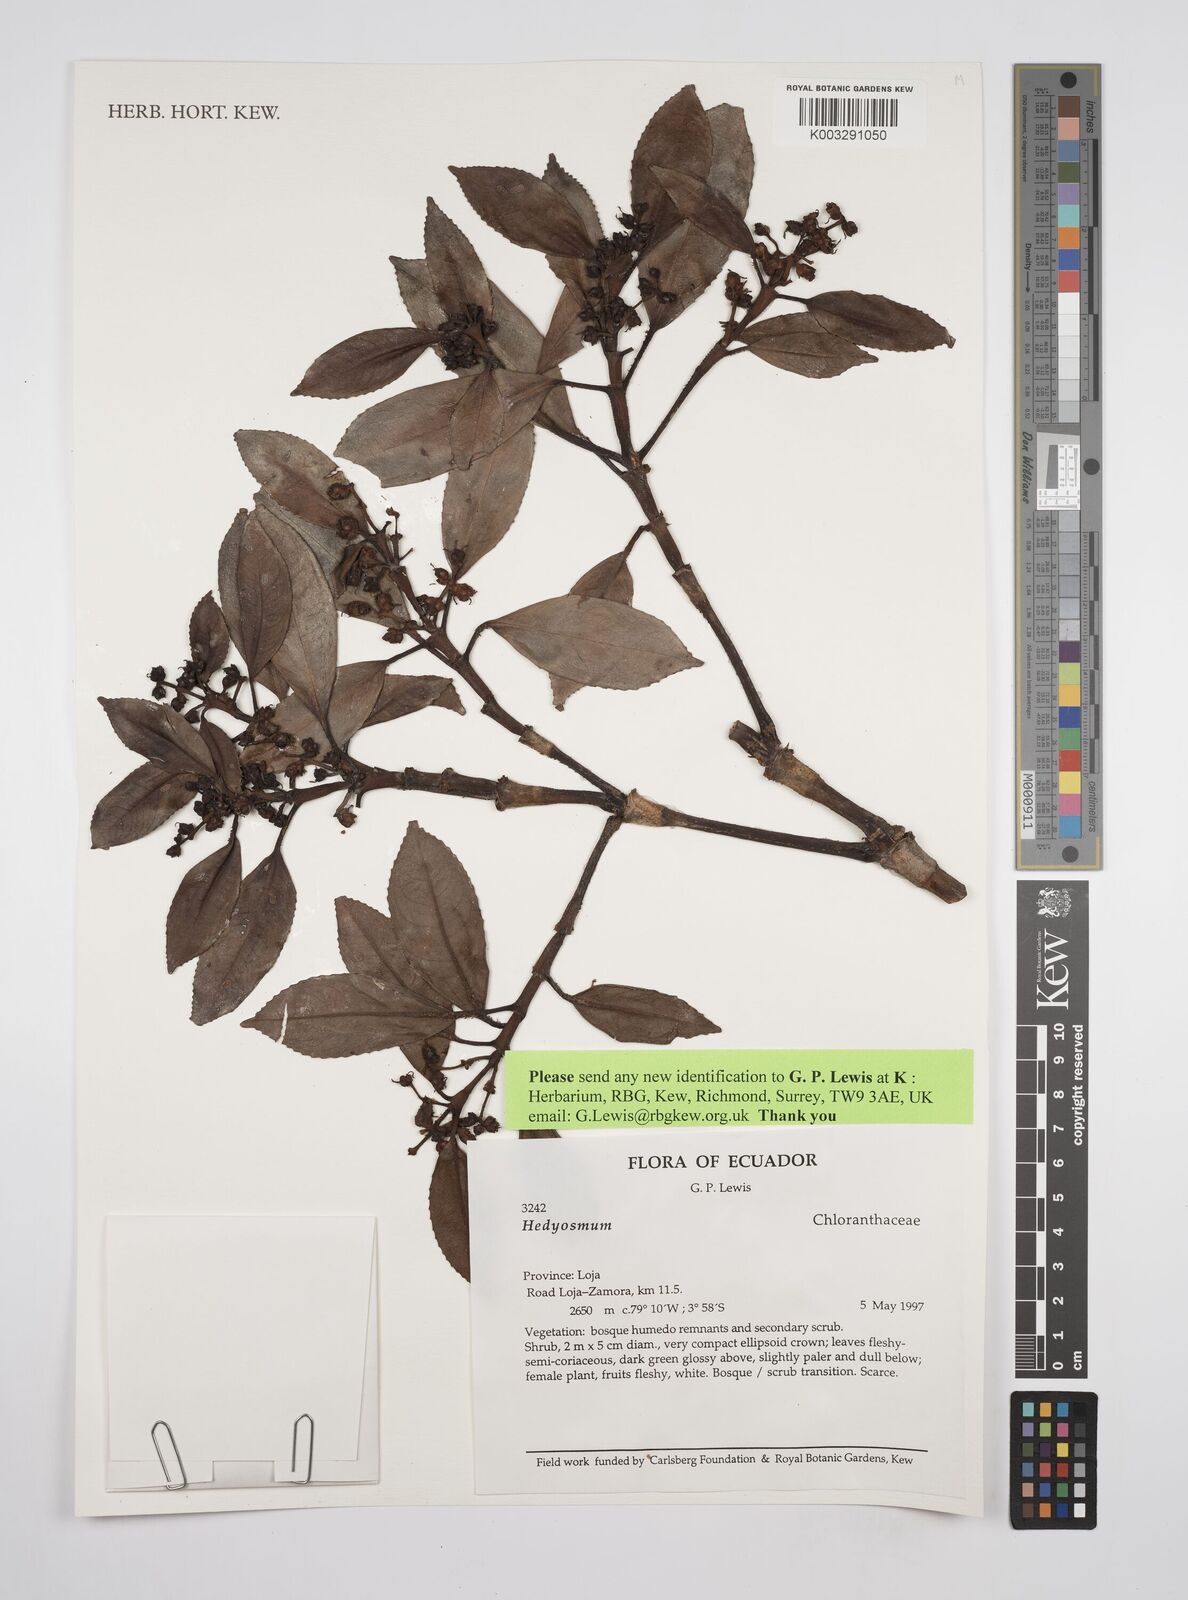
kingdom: Plantae
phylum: Tracheophyta
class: Magnoliopsida
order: Chloranthales
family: Chloranthaceae
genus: Hedyosmum
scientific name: Hedyosmum
